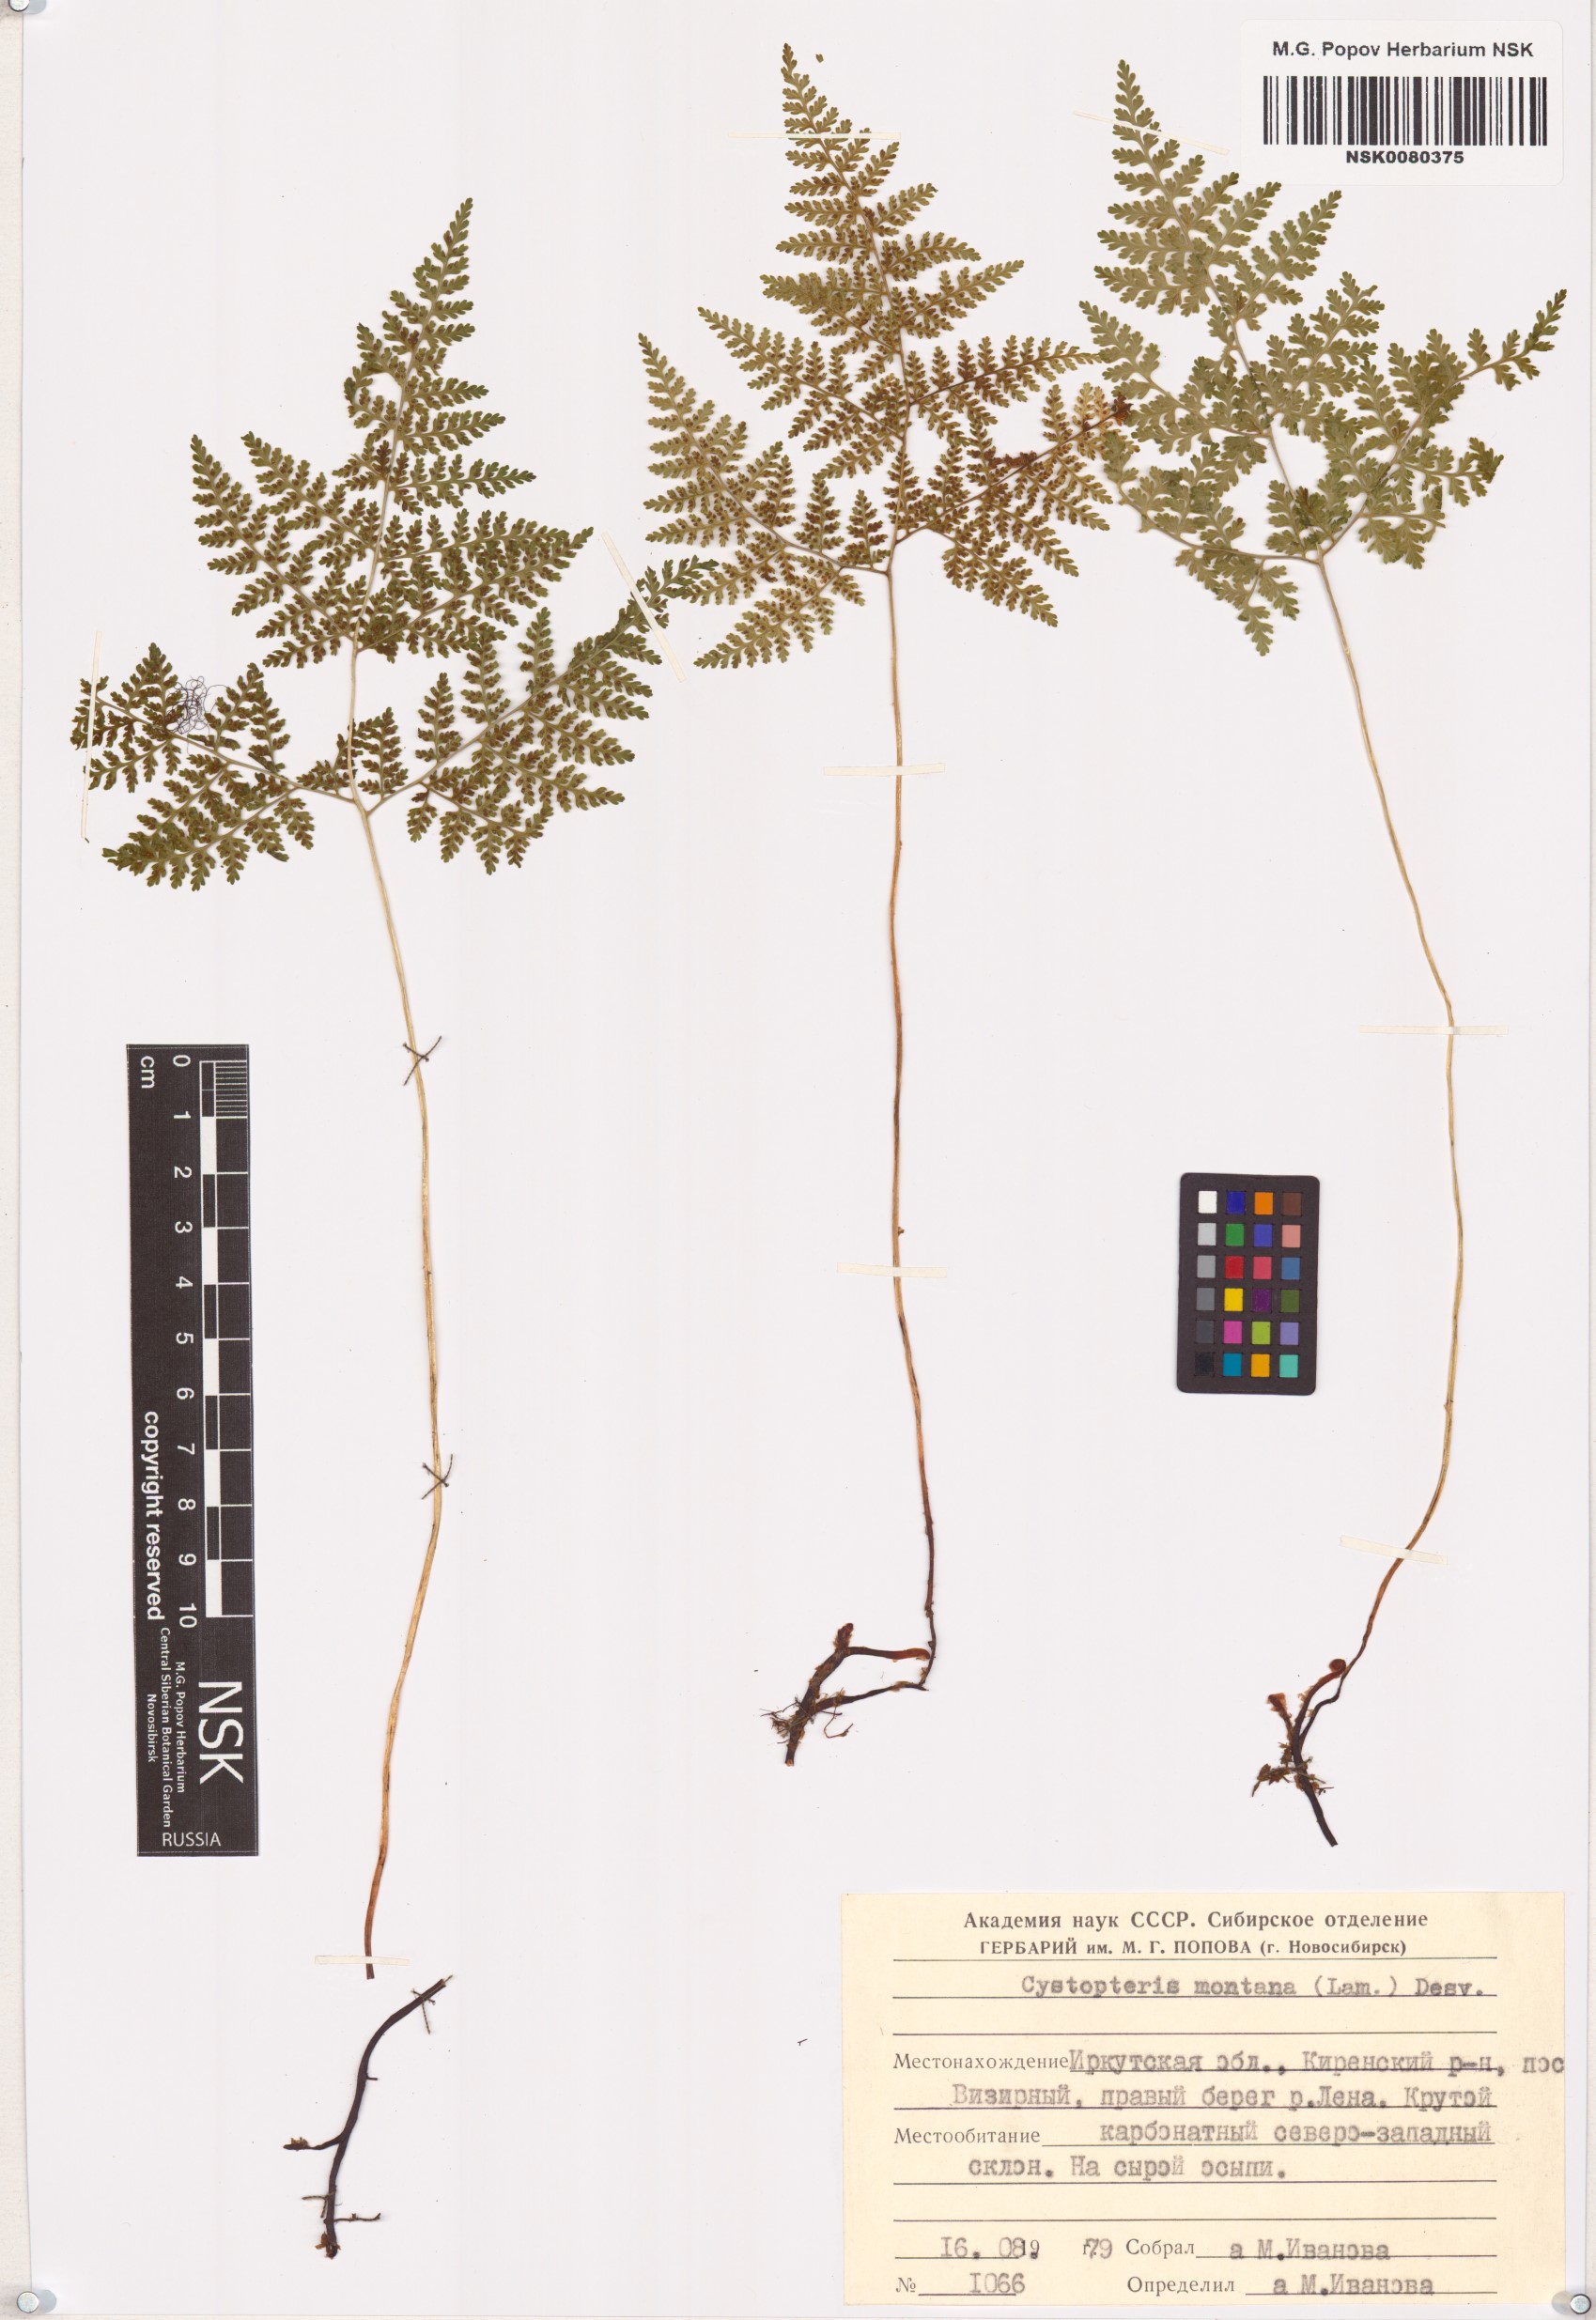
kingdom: Plantae
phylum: Tracheophyta
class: Polypodiopsida
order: Polypodiales
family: Cystopteridaceae
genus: Cystopteris
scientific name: Cystopteris montana
